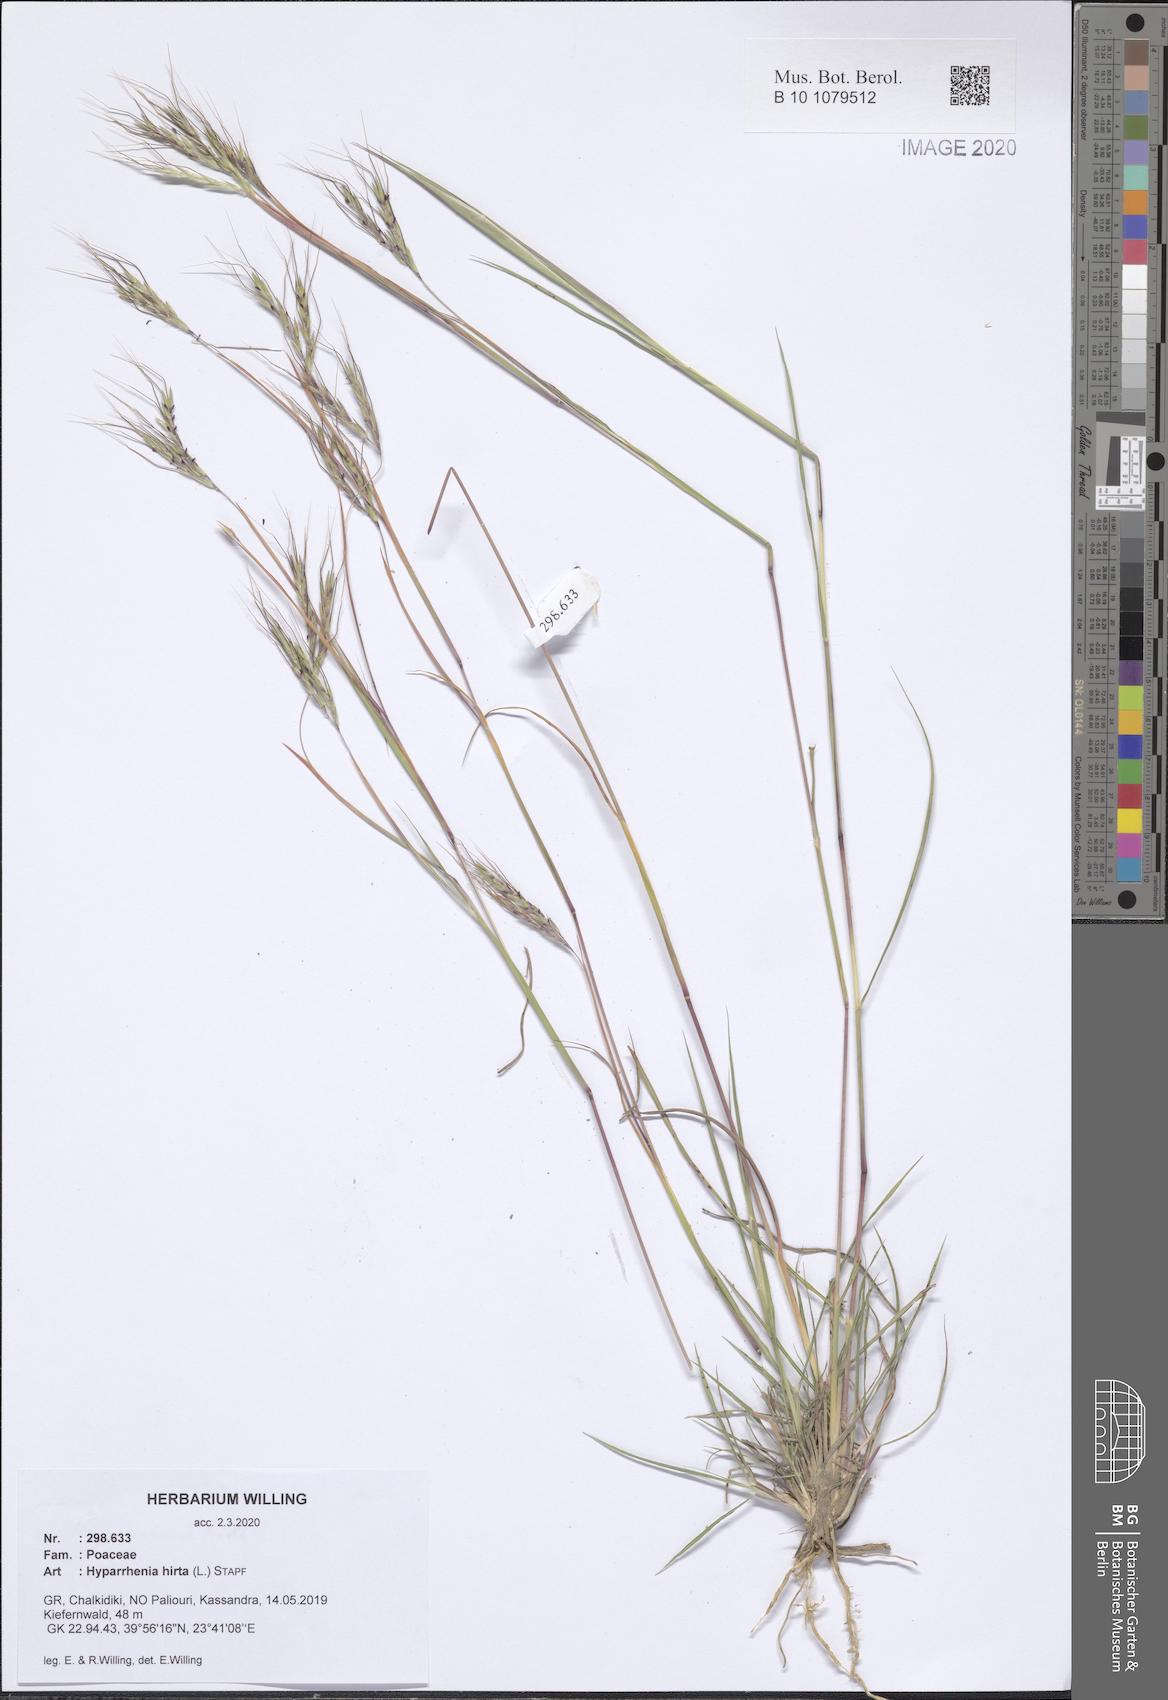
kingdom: Plantae
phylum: Tracheophyta
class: Liliopsida
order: Poales
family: Poaceae
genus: Hyparrhenia
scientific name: Hyparrhenia hirta
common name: Thatching grass
